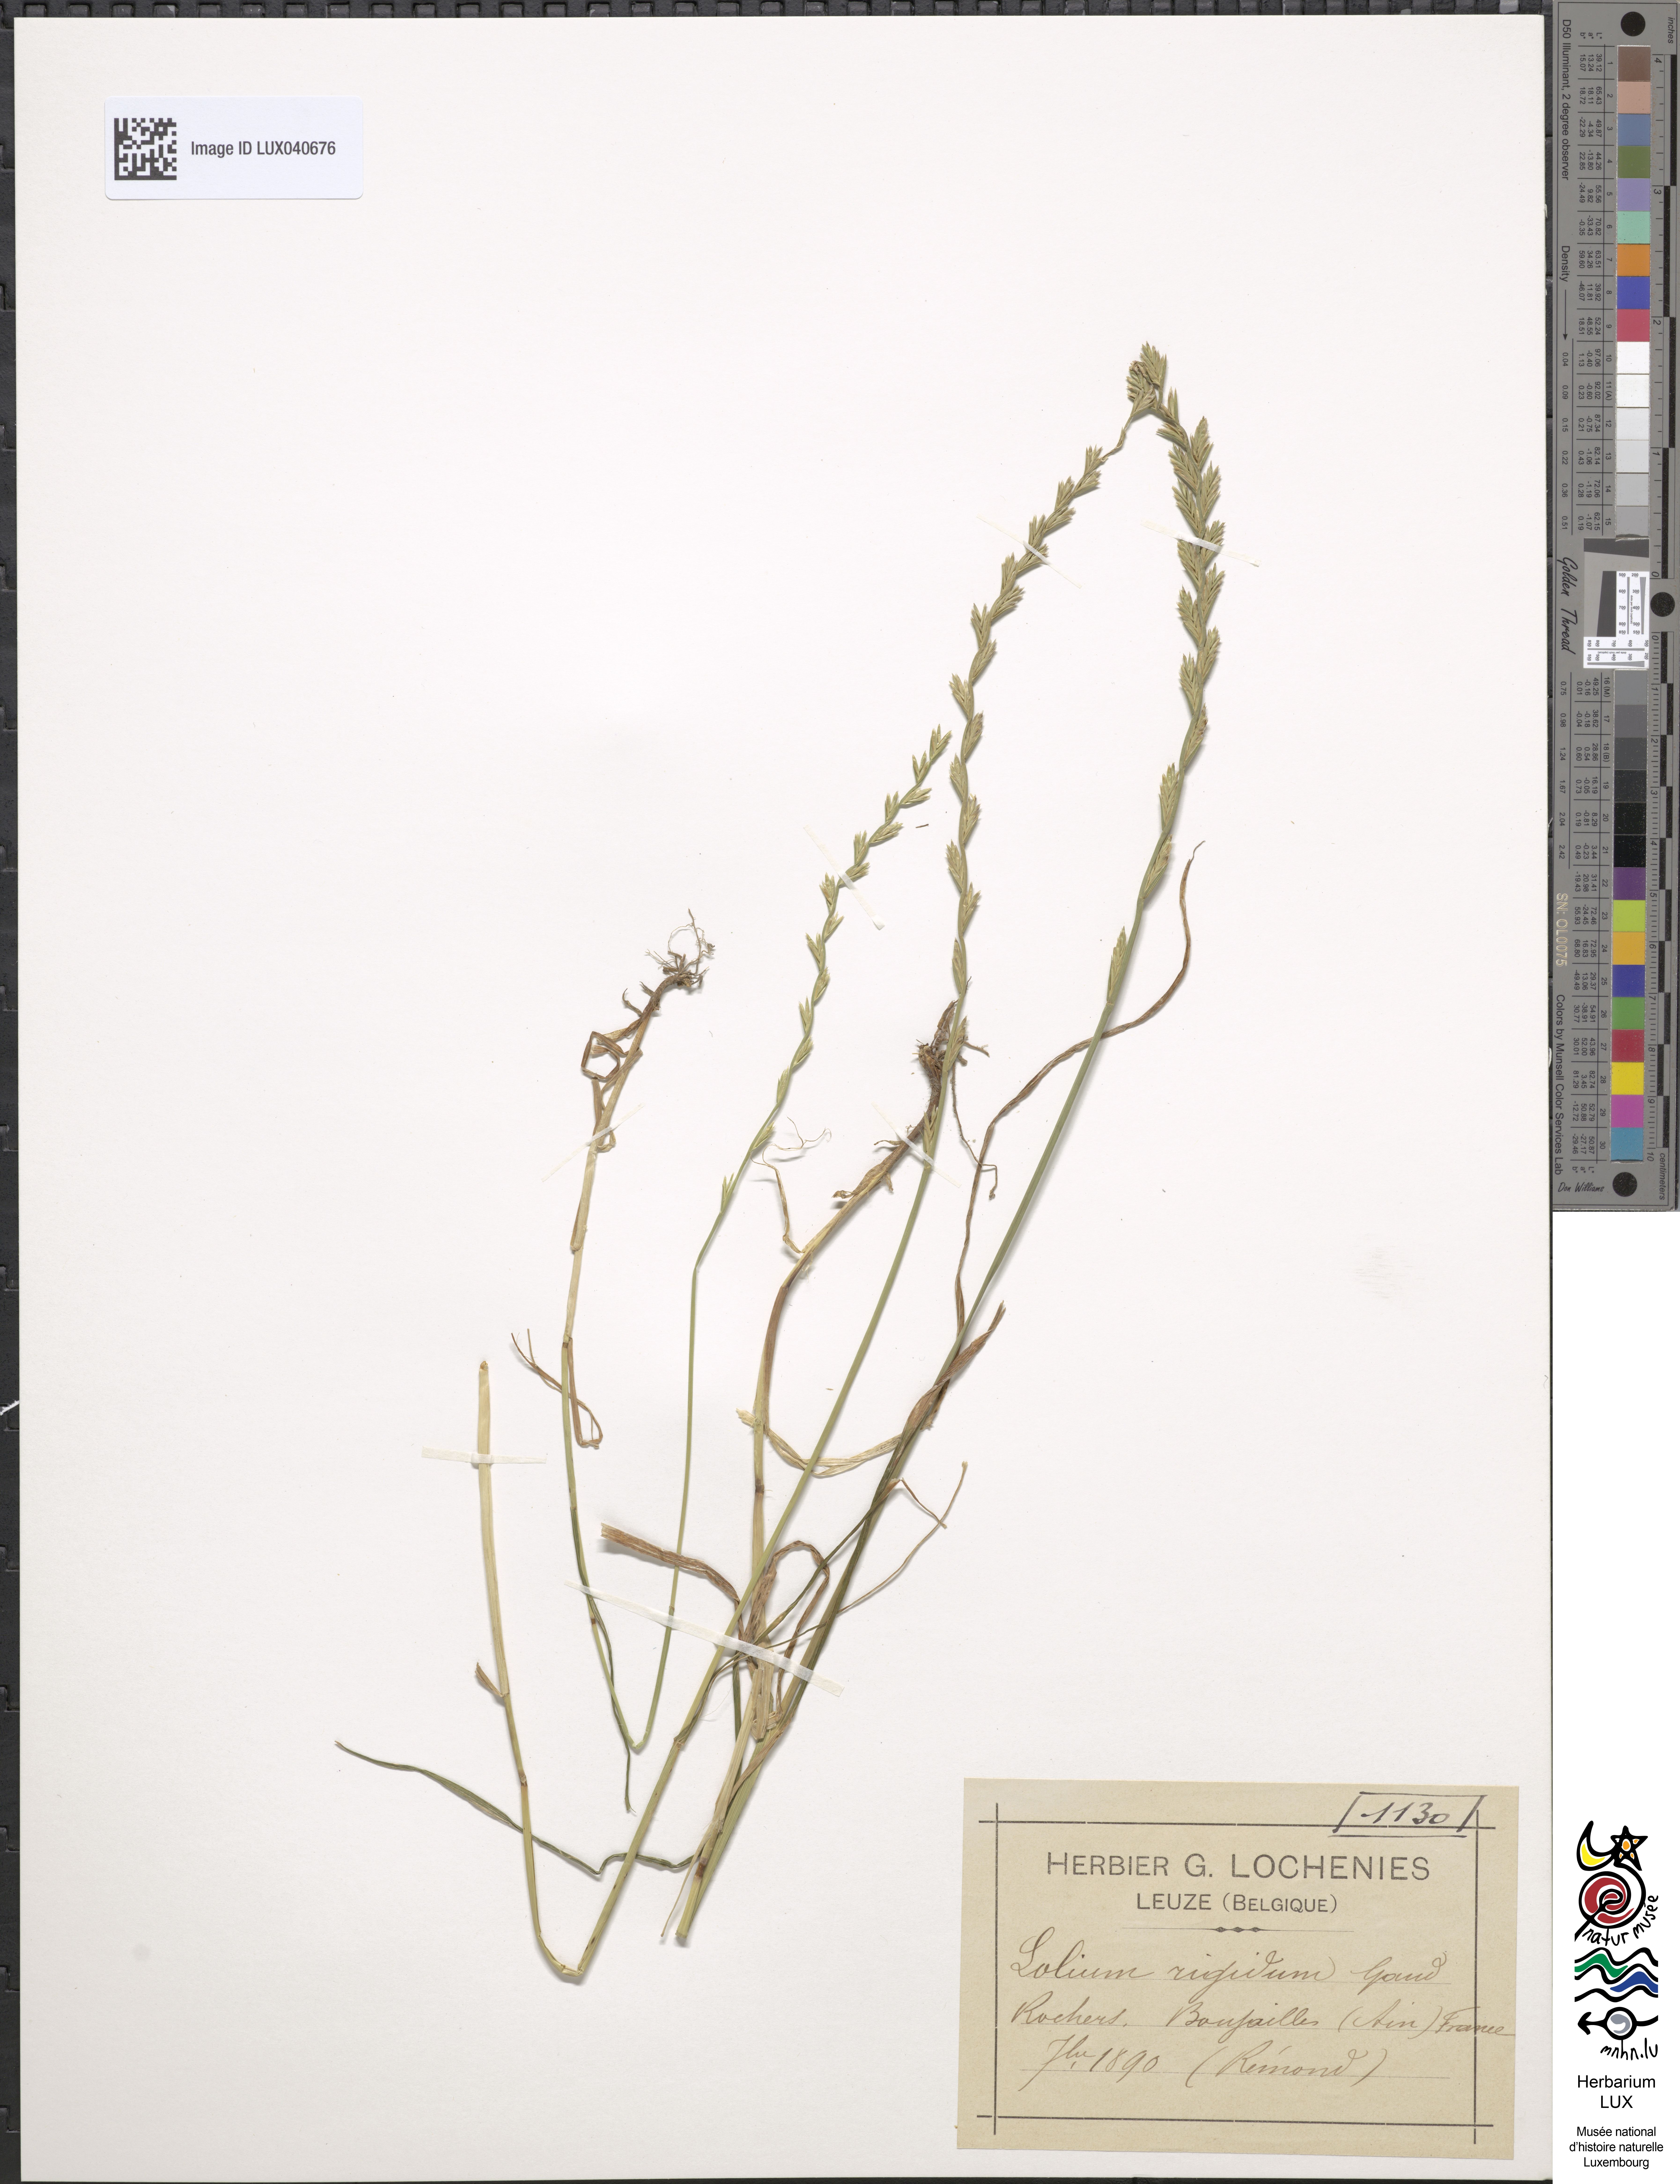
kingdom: Plantae
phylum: Tracheophyta
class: Liliopsida
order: Poales
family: Poaceae
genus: Lolium
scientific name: Lolium rigidum
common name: Wimmera ryegrass
